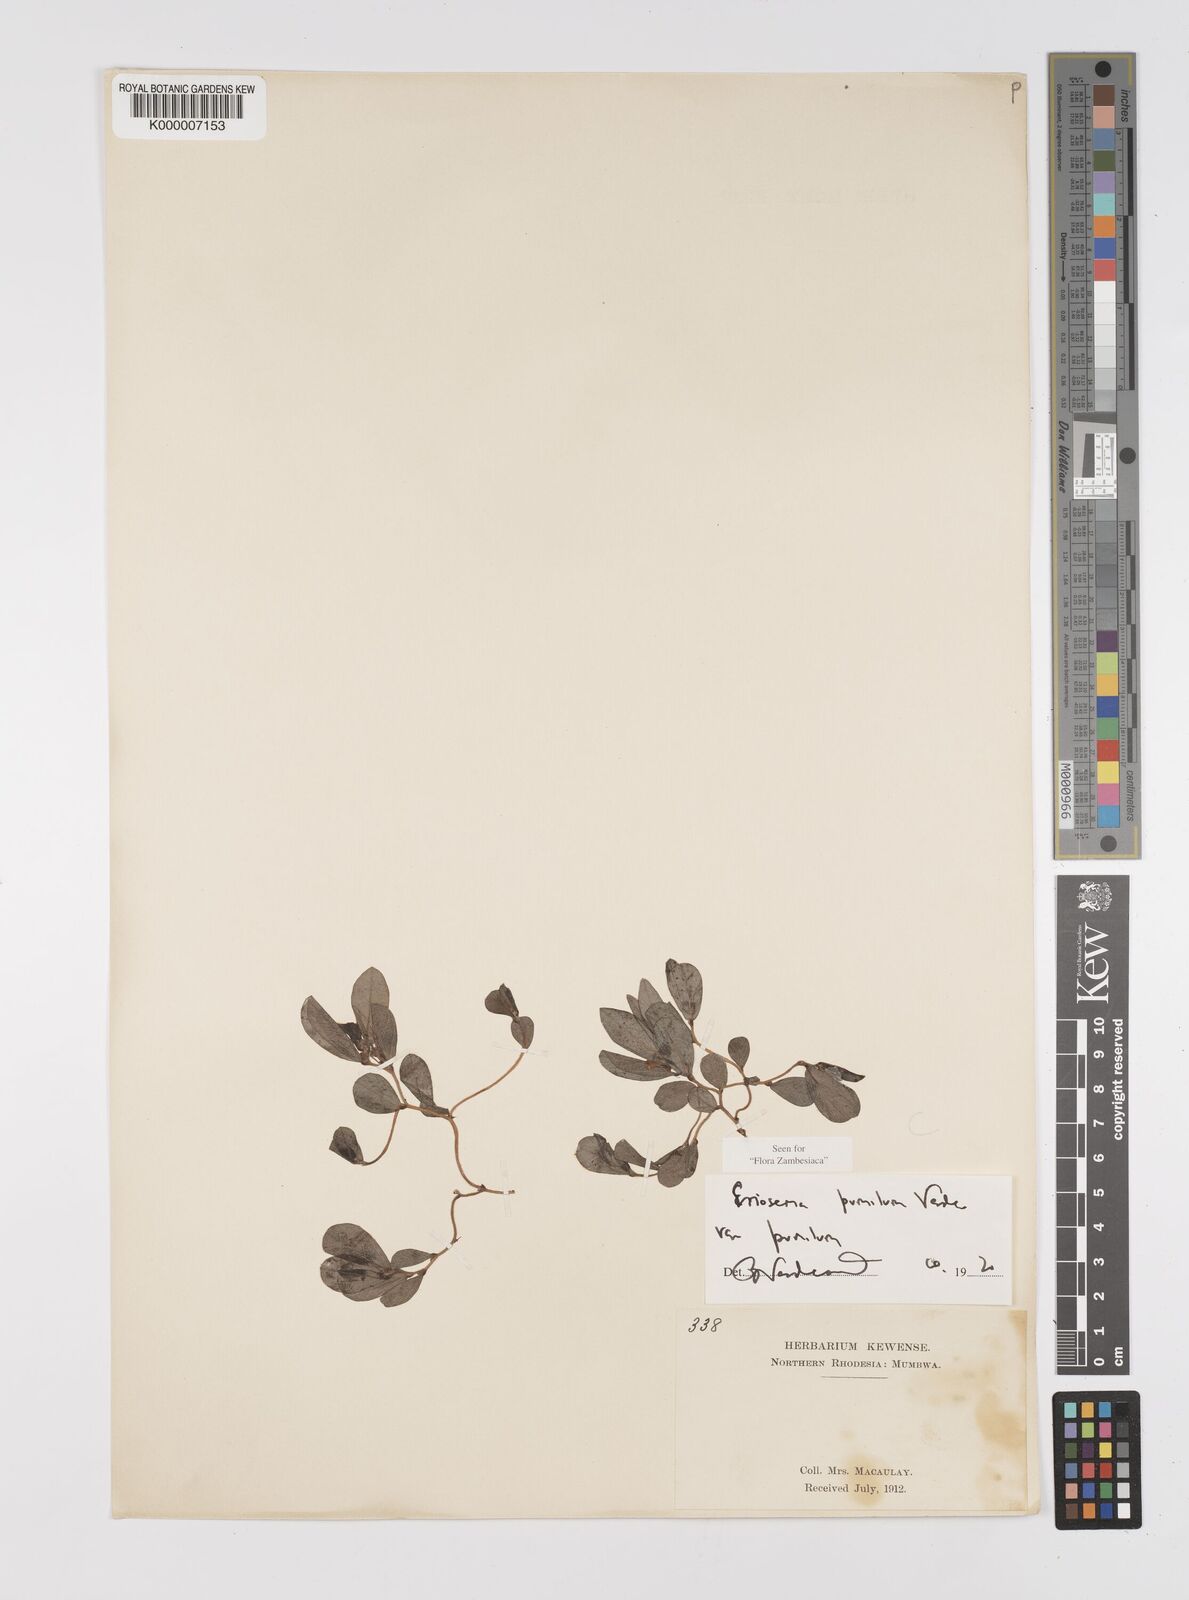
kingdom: Plantae
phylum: Tracheophyta
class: Magnoliopsida
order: Fabales
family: Fabaceae
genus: Eriosema
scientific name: Eriosema pumilum
